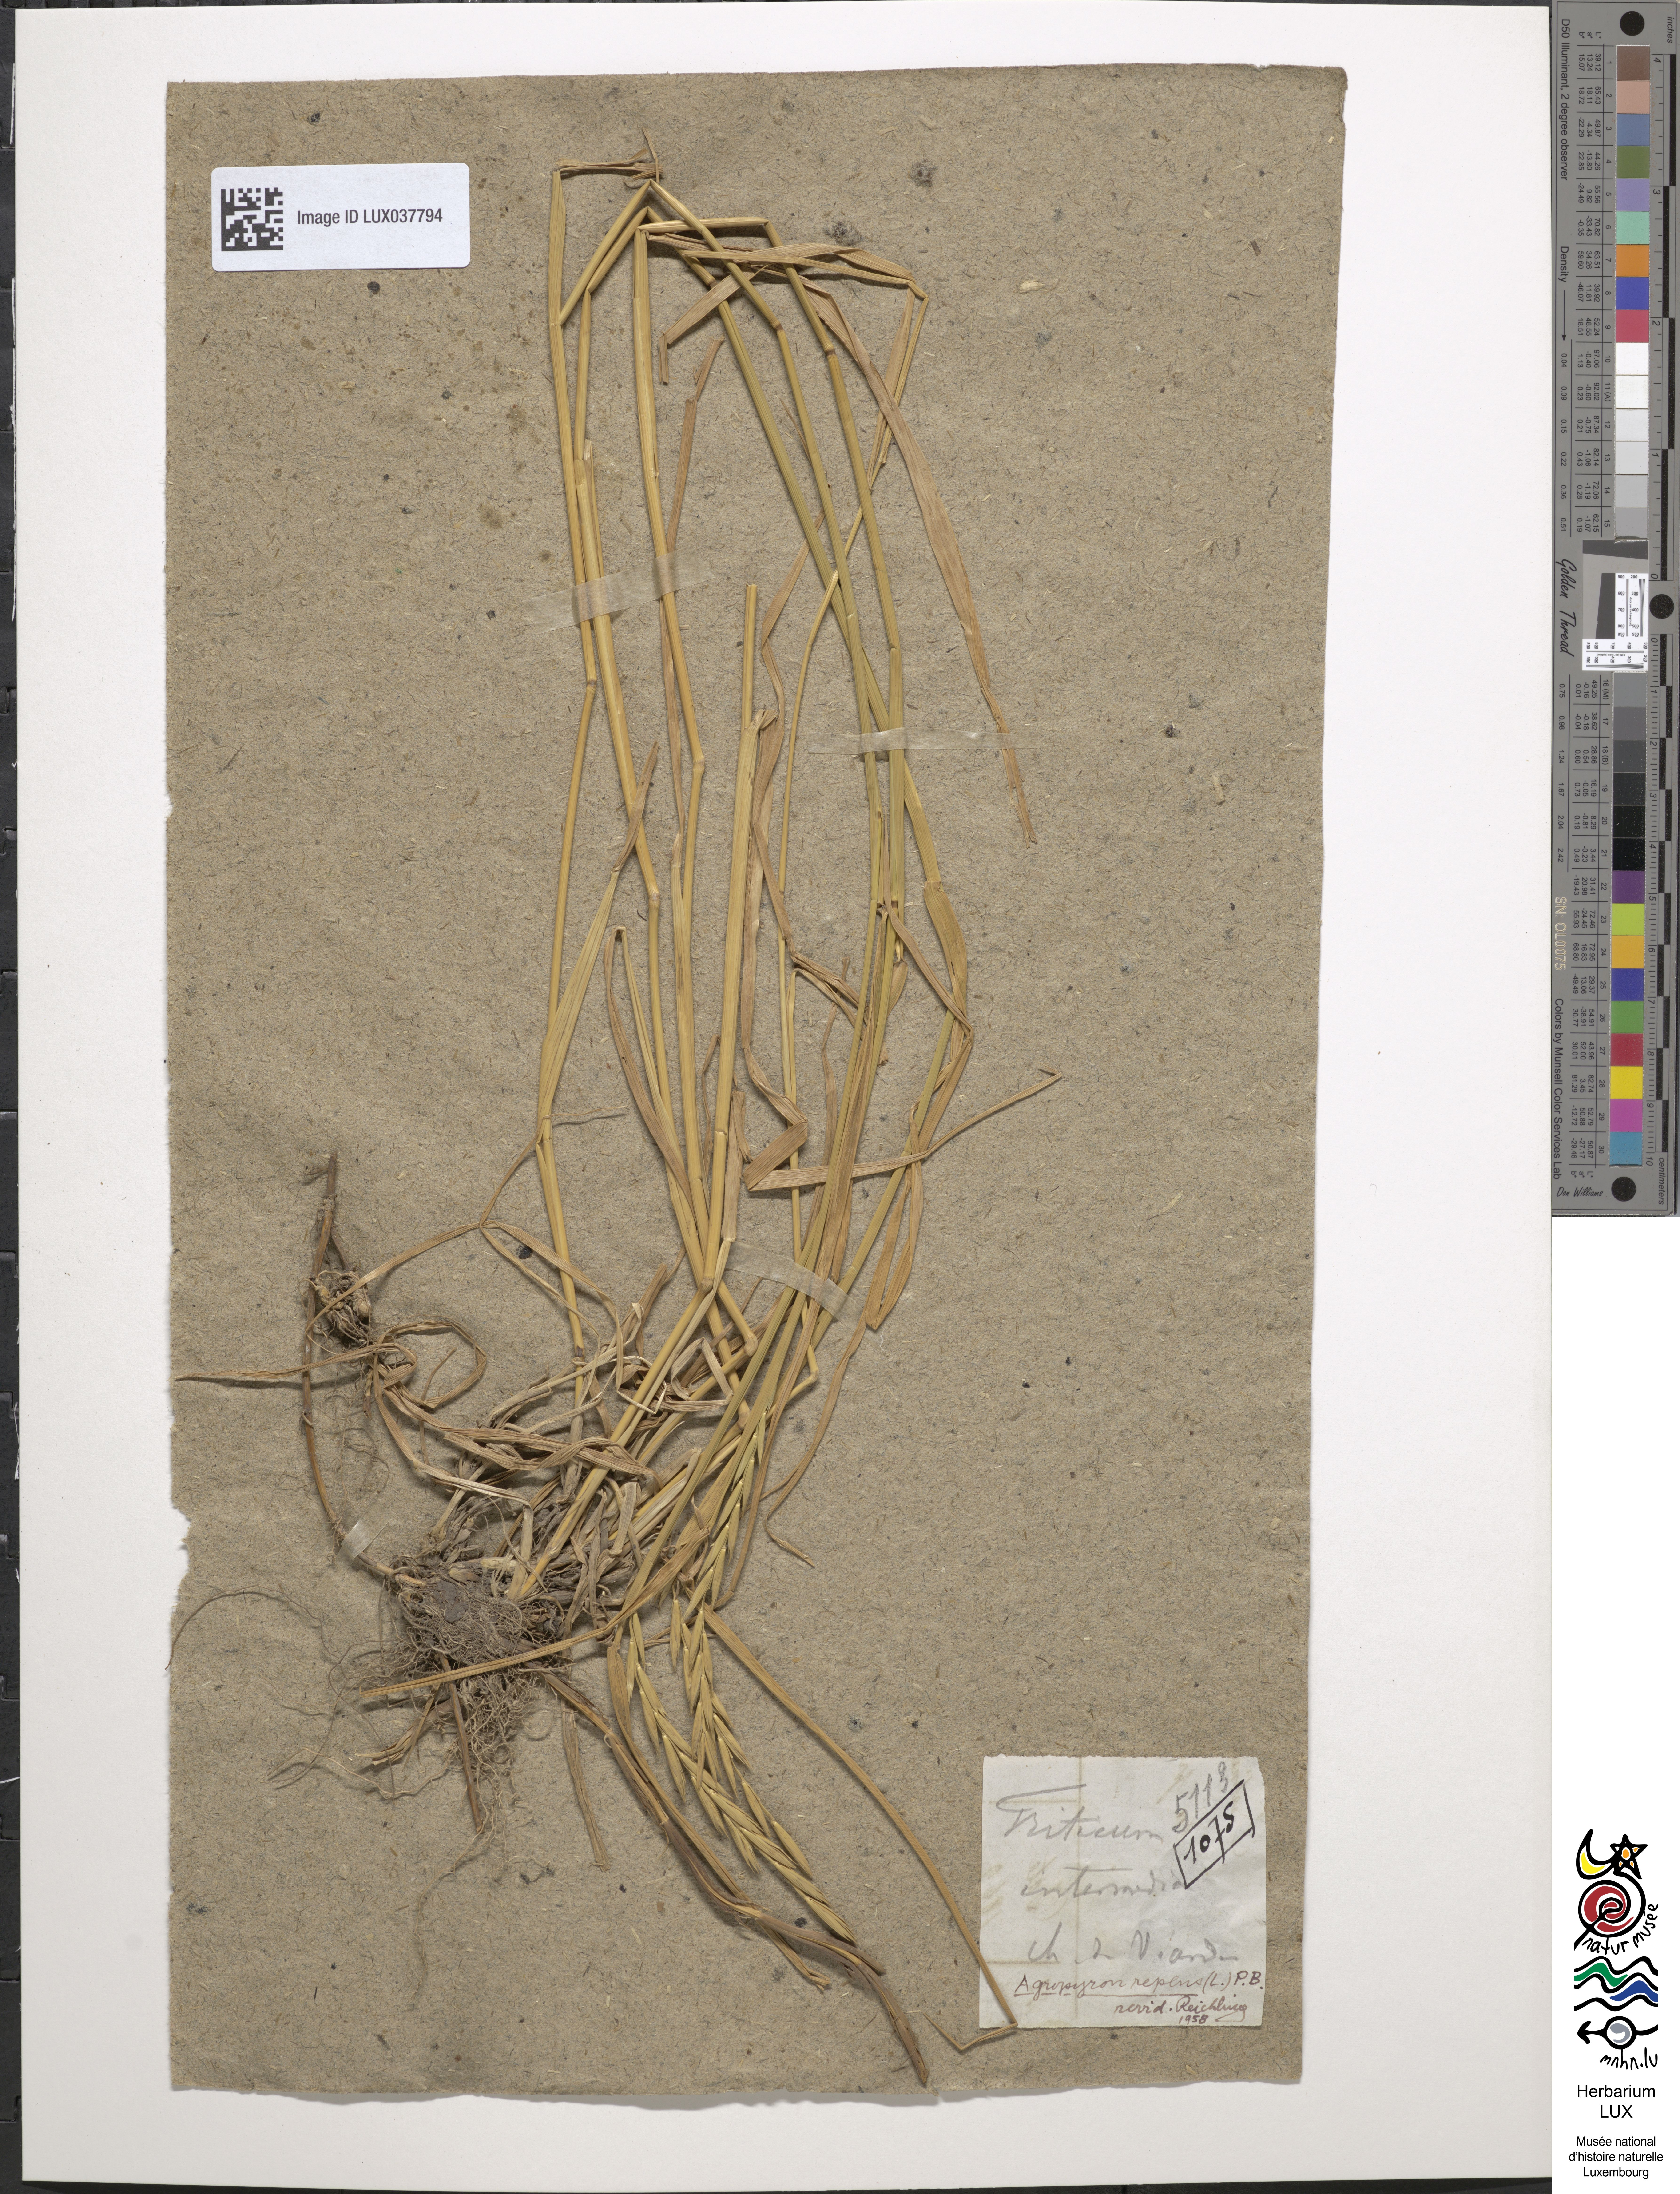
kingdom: Plantae
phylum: Tracheophyta
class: Liliopsida
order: Poales
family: Poaceae
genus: Thinopyrum
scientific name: Thinopyrum intermedium
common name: Intermediate wheatgrass
